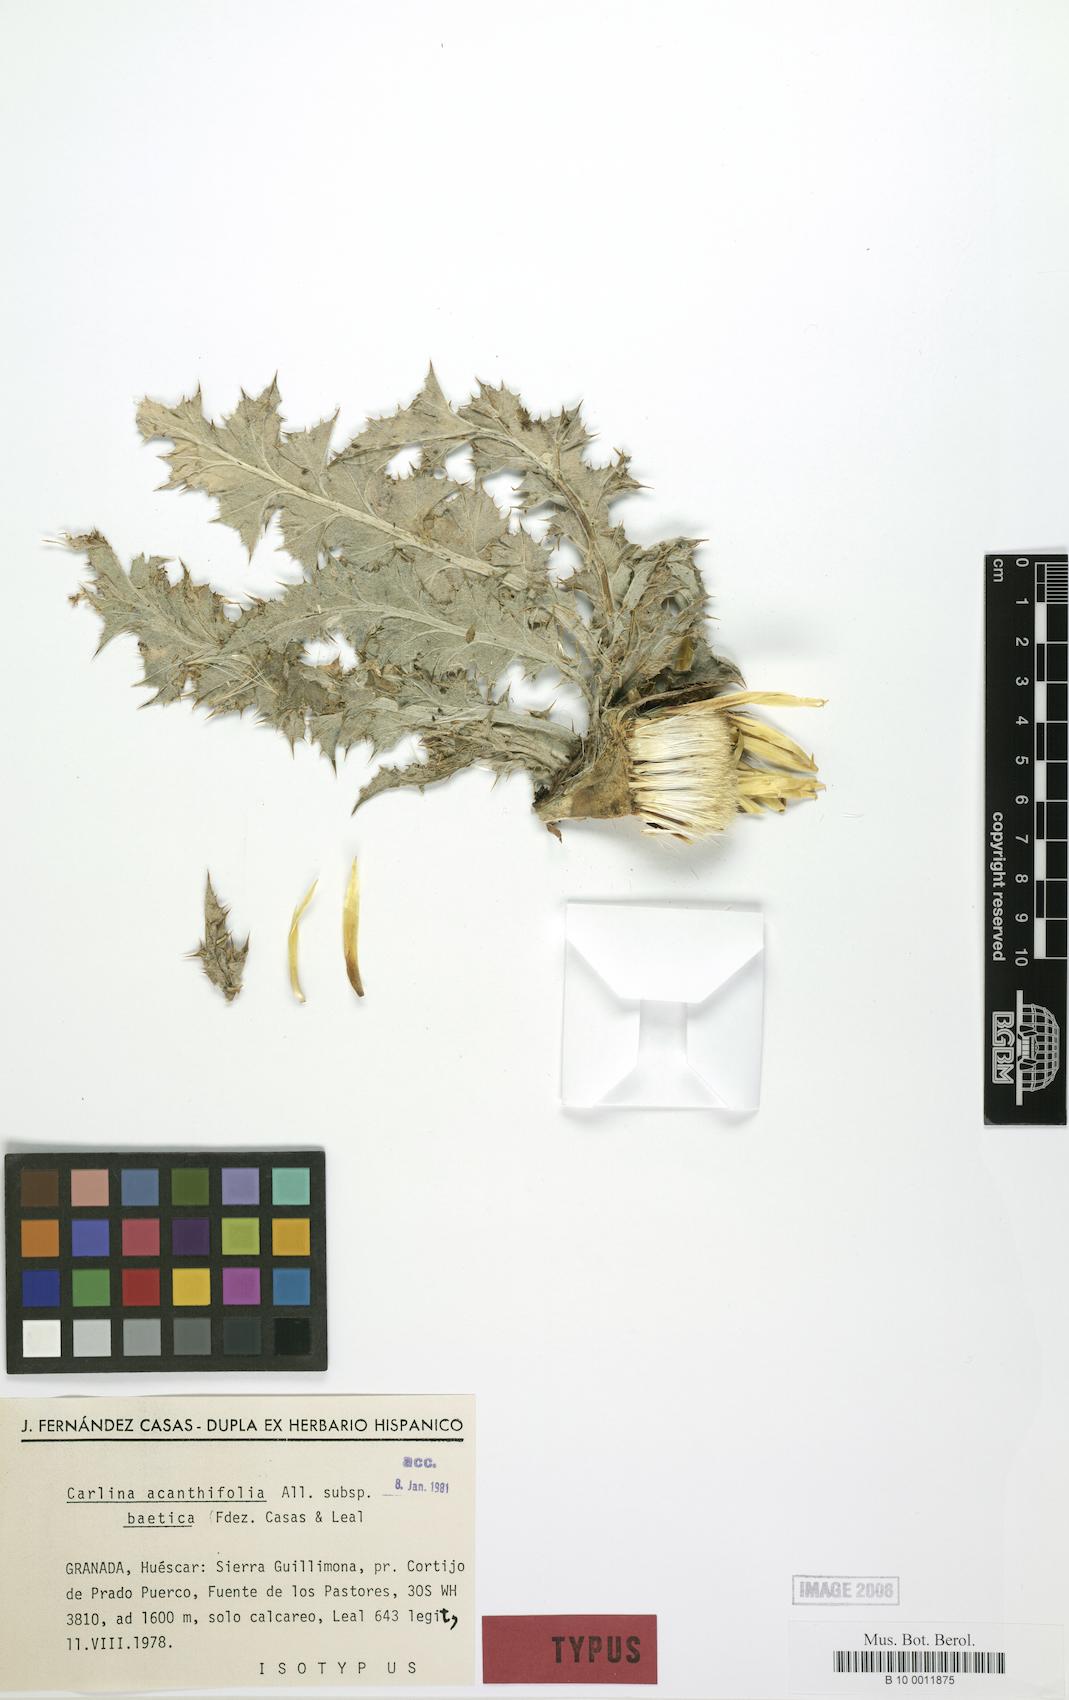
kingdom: Plantae
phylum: Tracheophyta
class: Magnoliopsida
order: Asterales
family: Asteraceae
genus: Carlina
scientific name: Carlina acanthifolia
